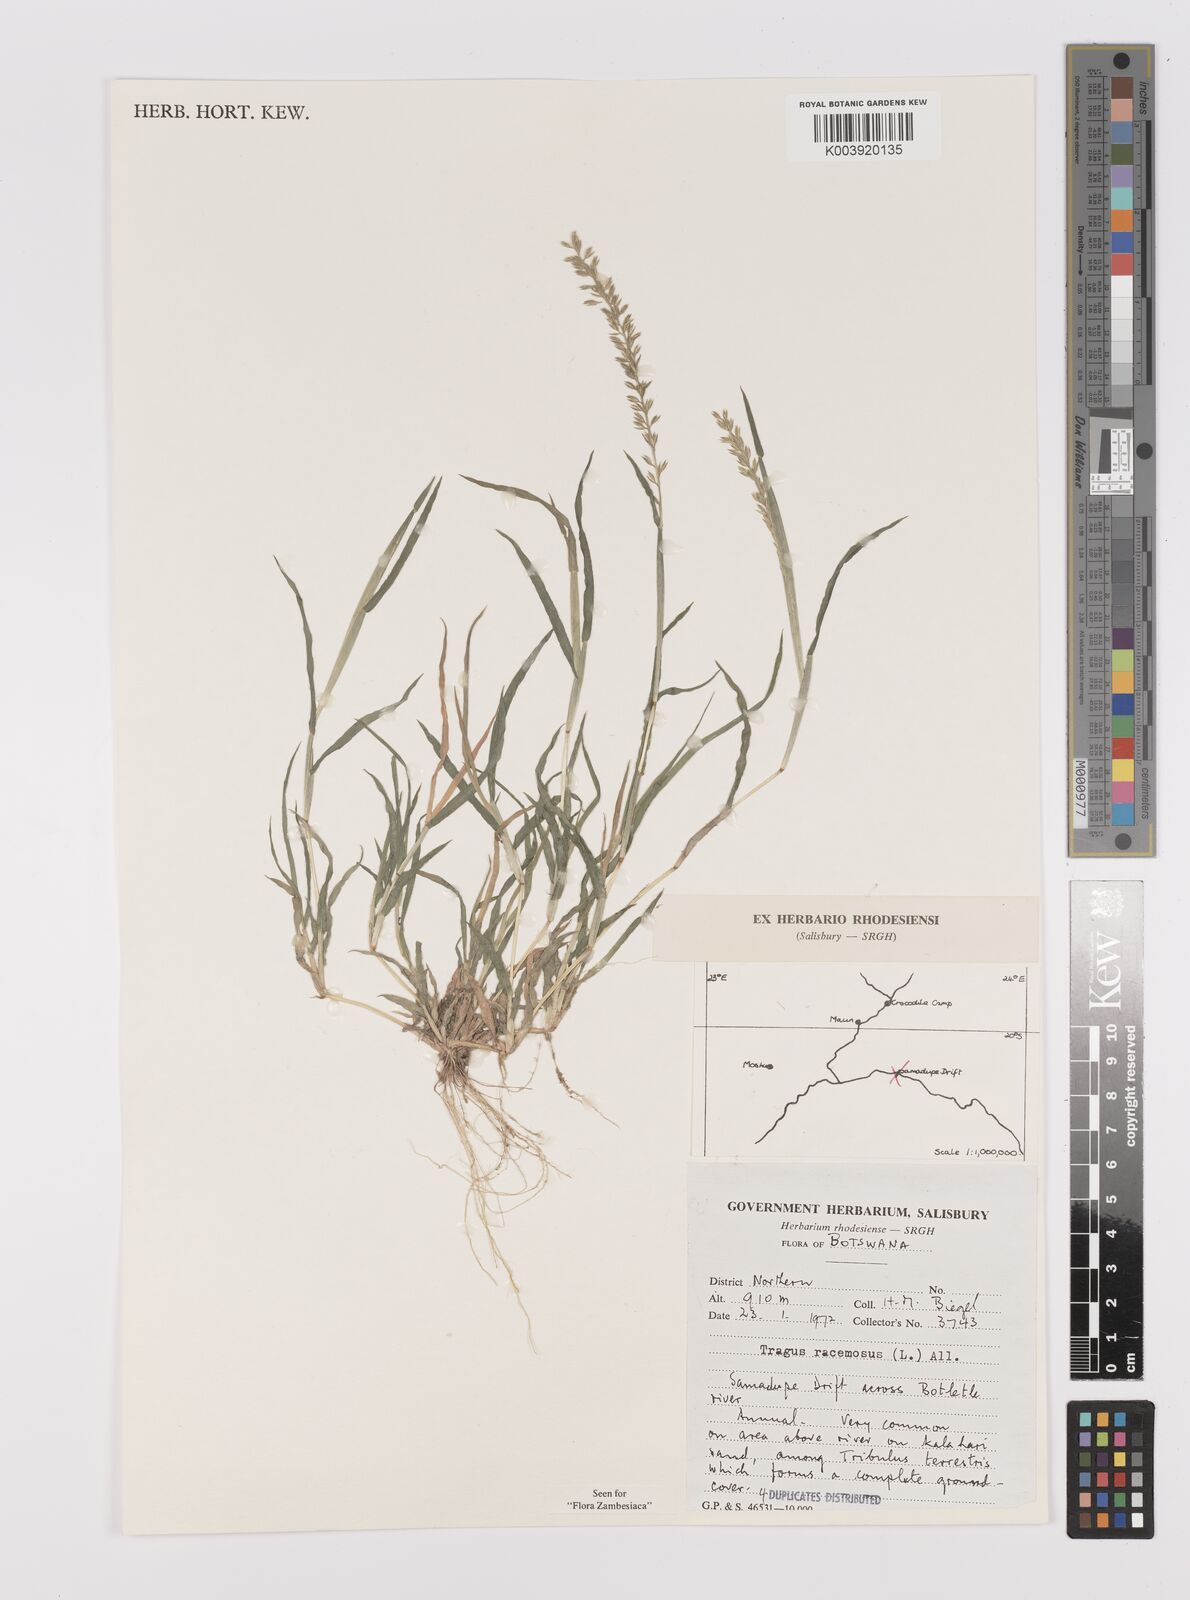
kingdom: Plantae
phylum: Tracheophyta
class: Liliopsida
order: Poales
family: Poaceae
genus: Tragus
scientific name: Tragus racemosus
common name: European bur-grass
